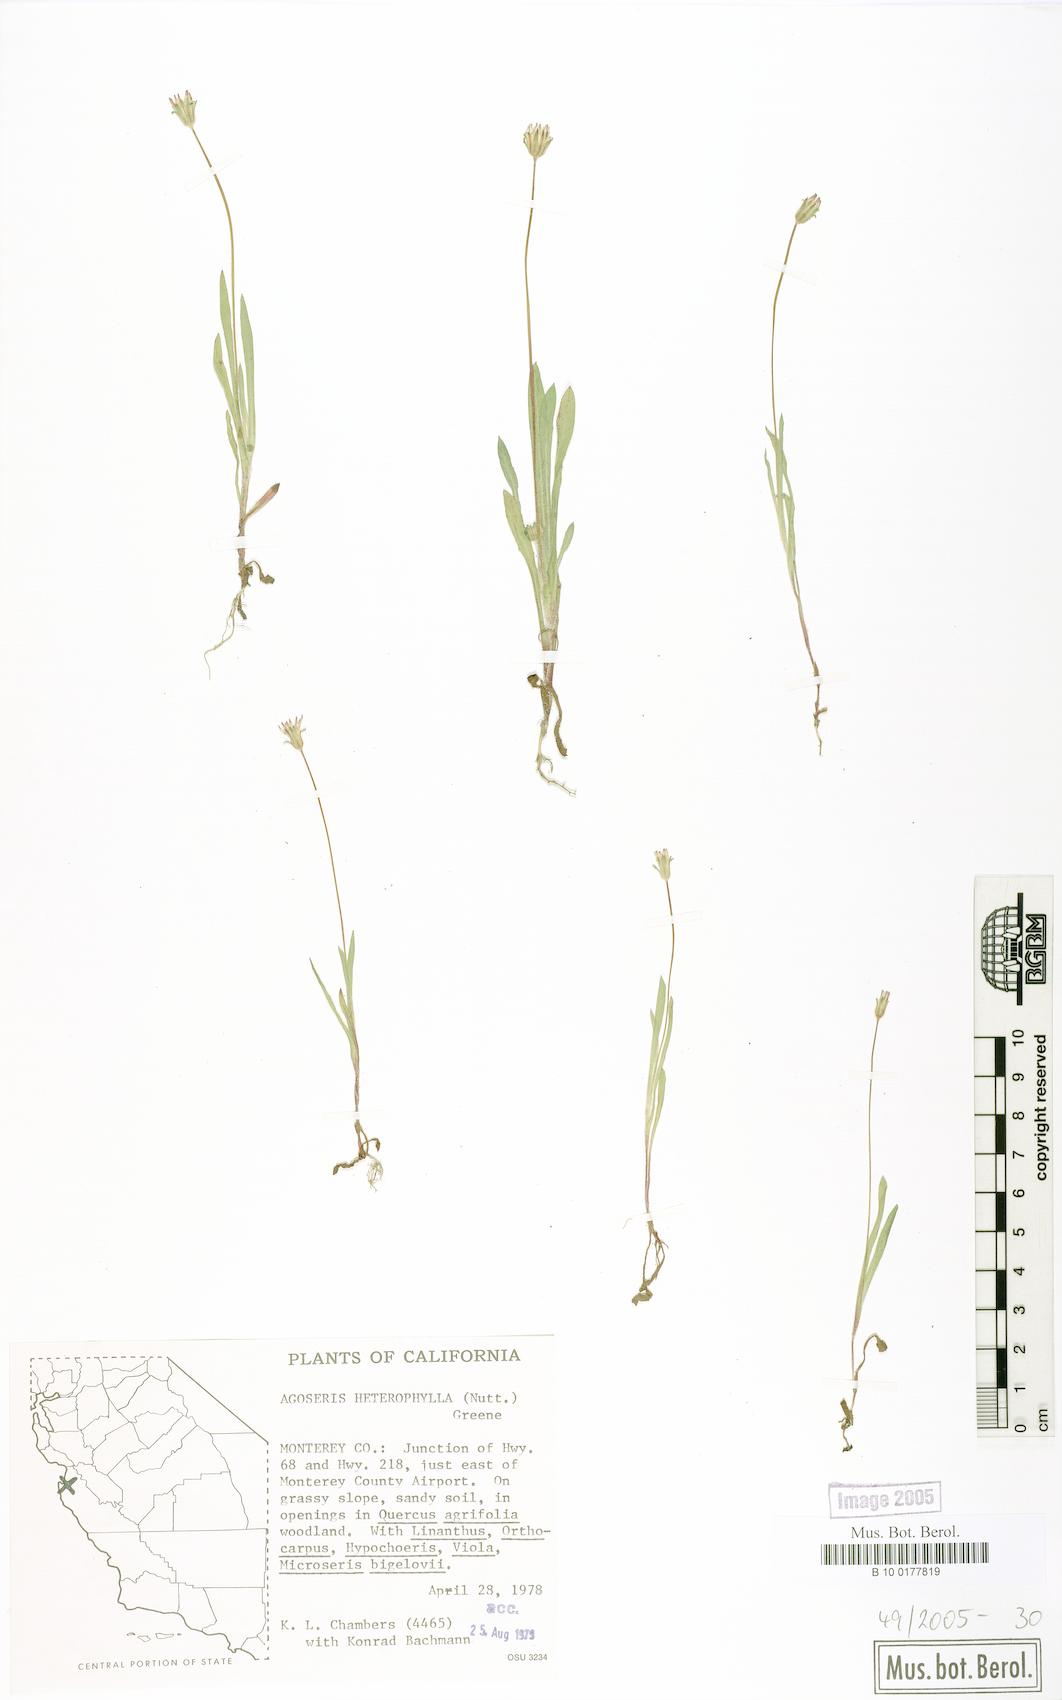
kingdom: Plantae
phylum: Tracheophyta
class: Magnoliopsida
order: Asterales
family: Asteraceae
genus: Agoseris
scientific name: Agoseris heterophylla
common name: Annual agoseris
